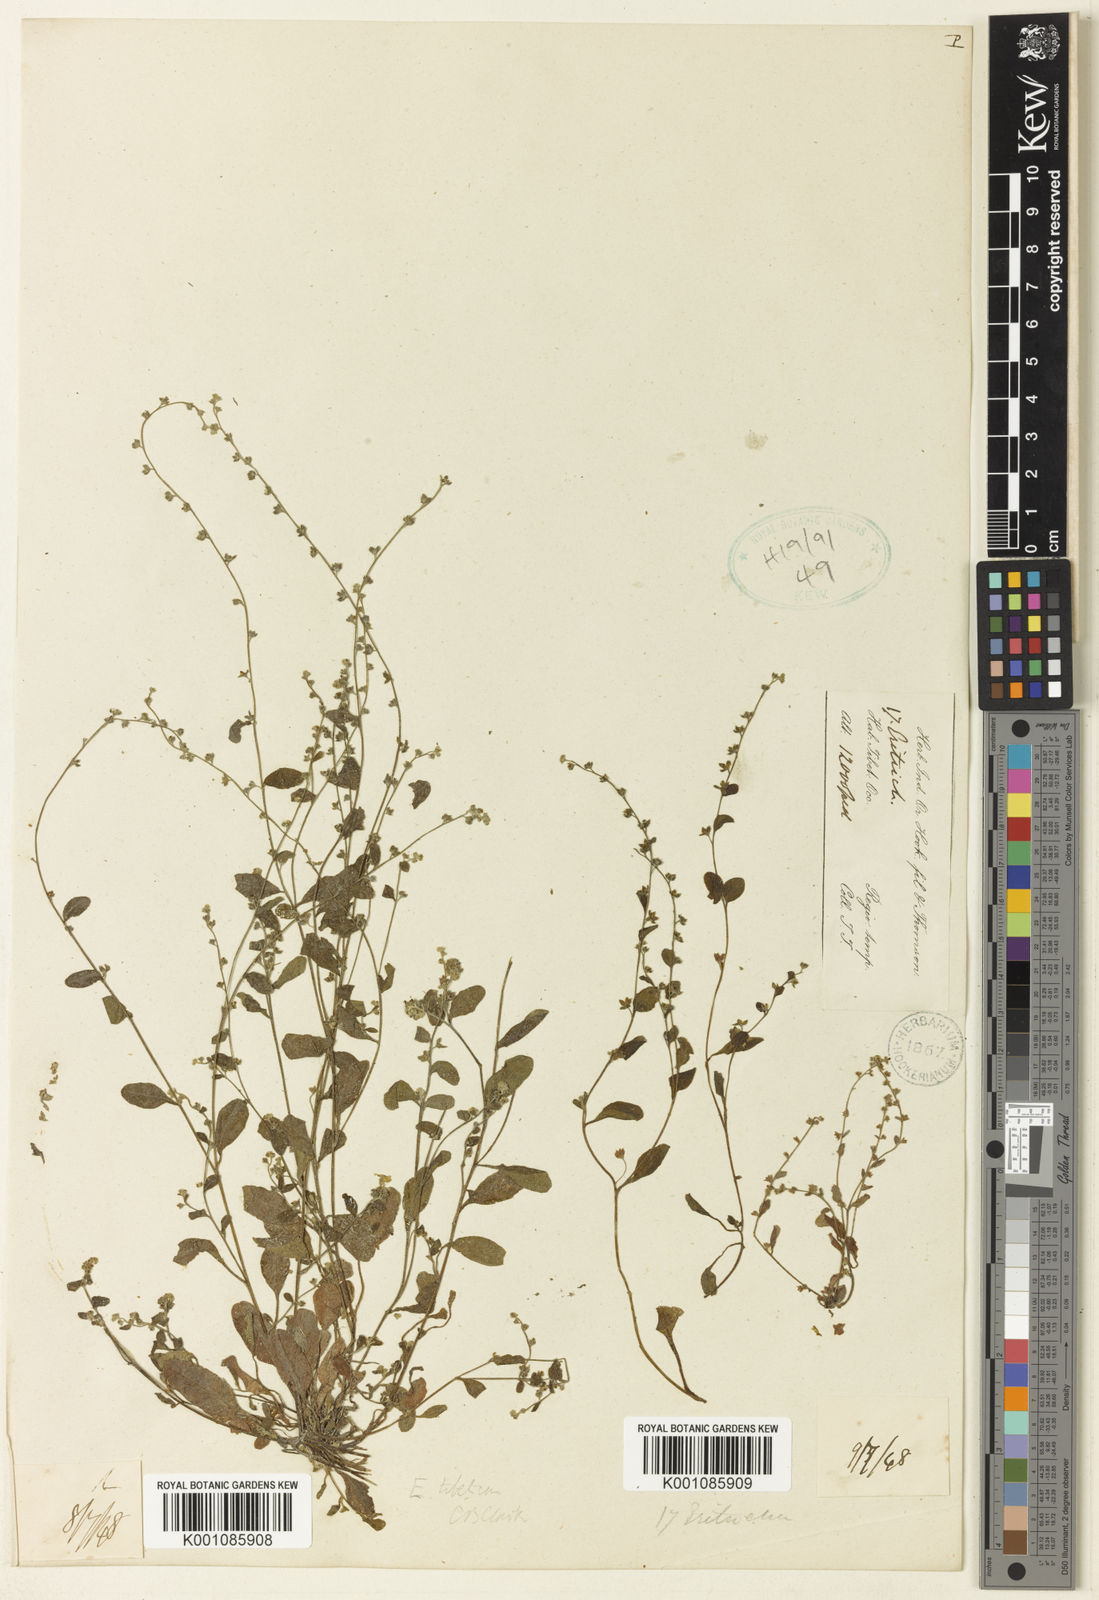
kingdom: Plantae
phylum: Tracheophyta
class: Magnoliopsida
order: Boraginales
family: Boraginaceae
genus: Trigonotis
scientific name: Trigonotis
